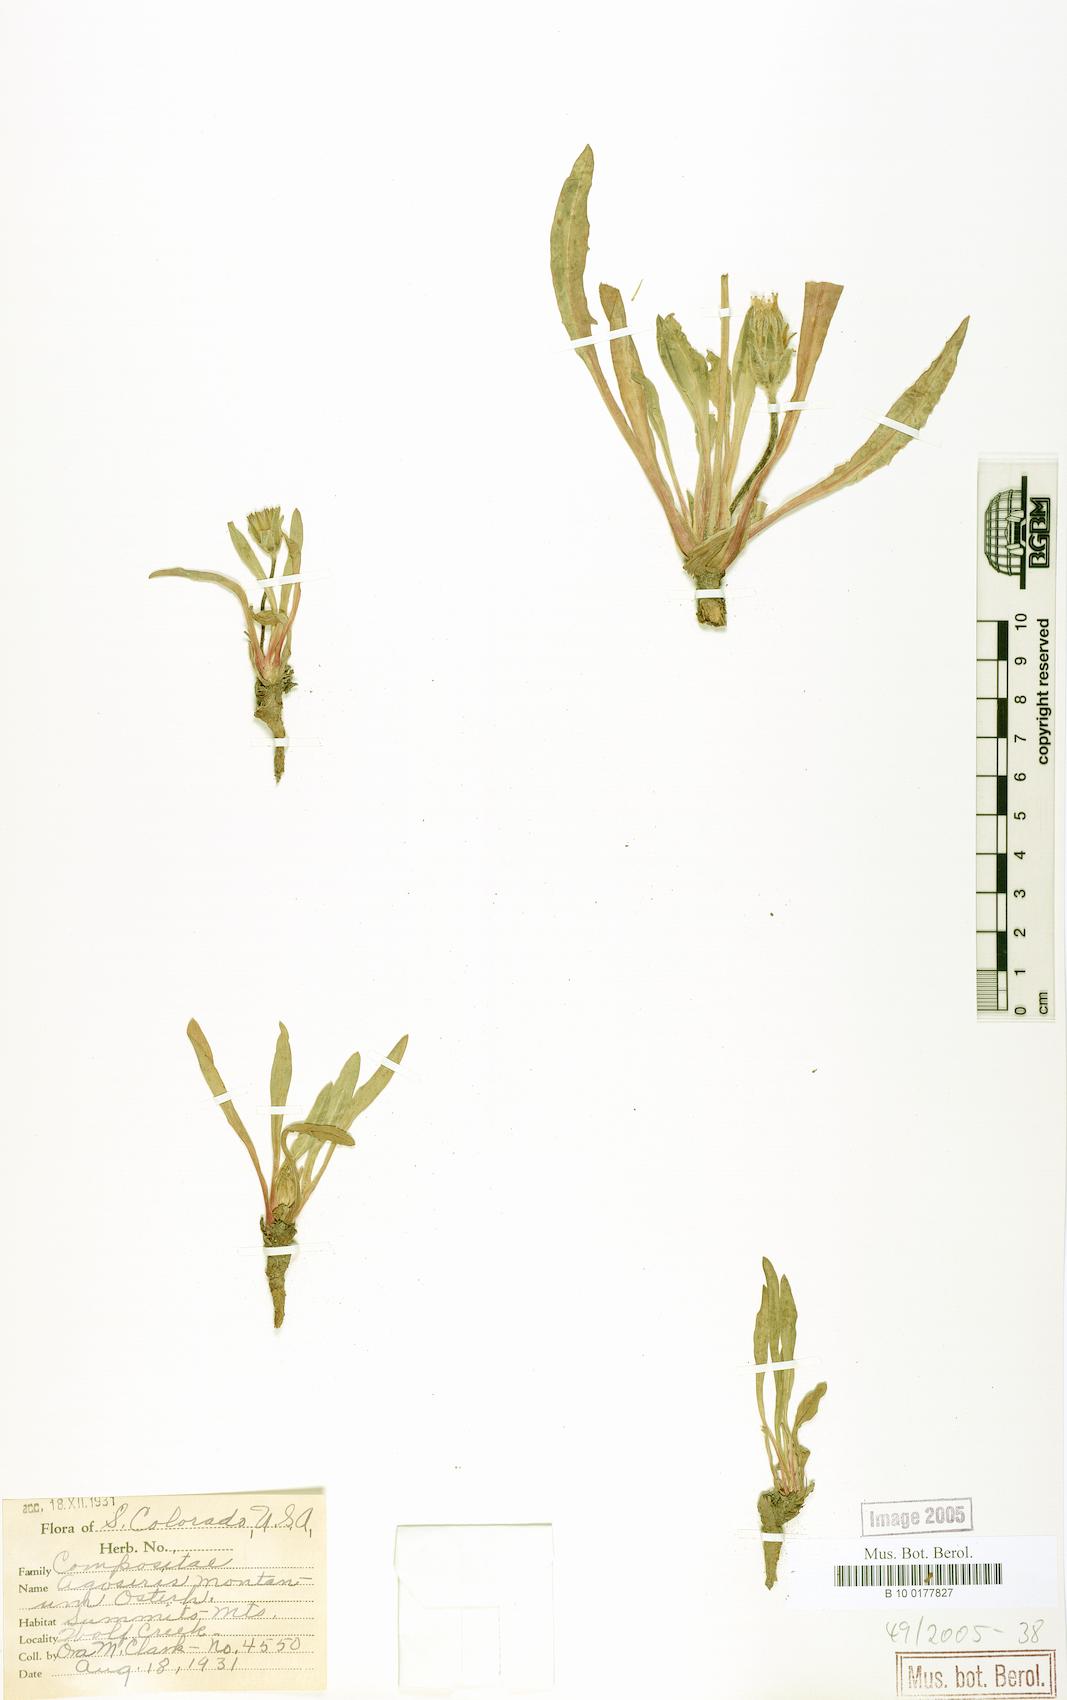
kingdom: Plantae
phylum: Tracheophyta
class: Magnoliopsida
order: Asterales
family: Asteraceae
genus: Agoseris
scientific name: Agoseris aurantiaca
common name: Mountain agoseris
